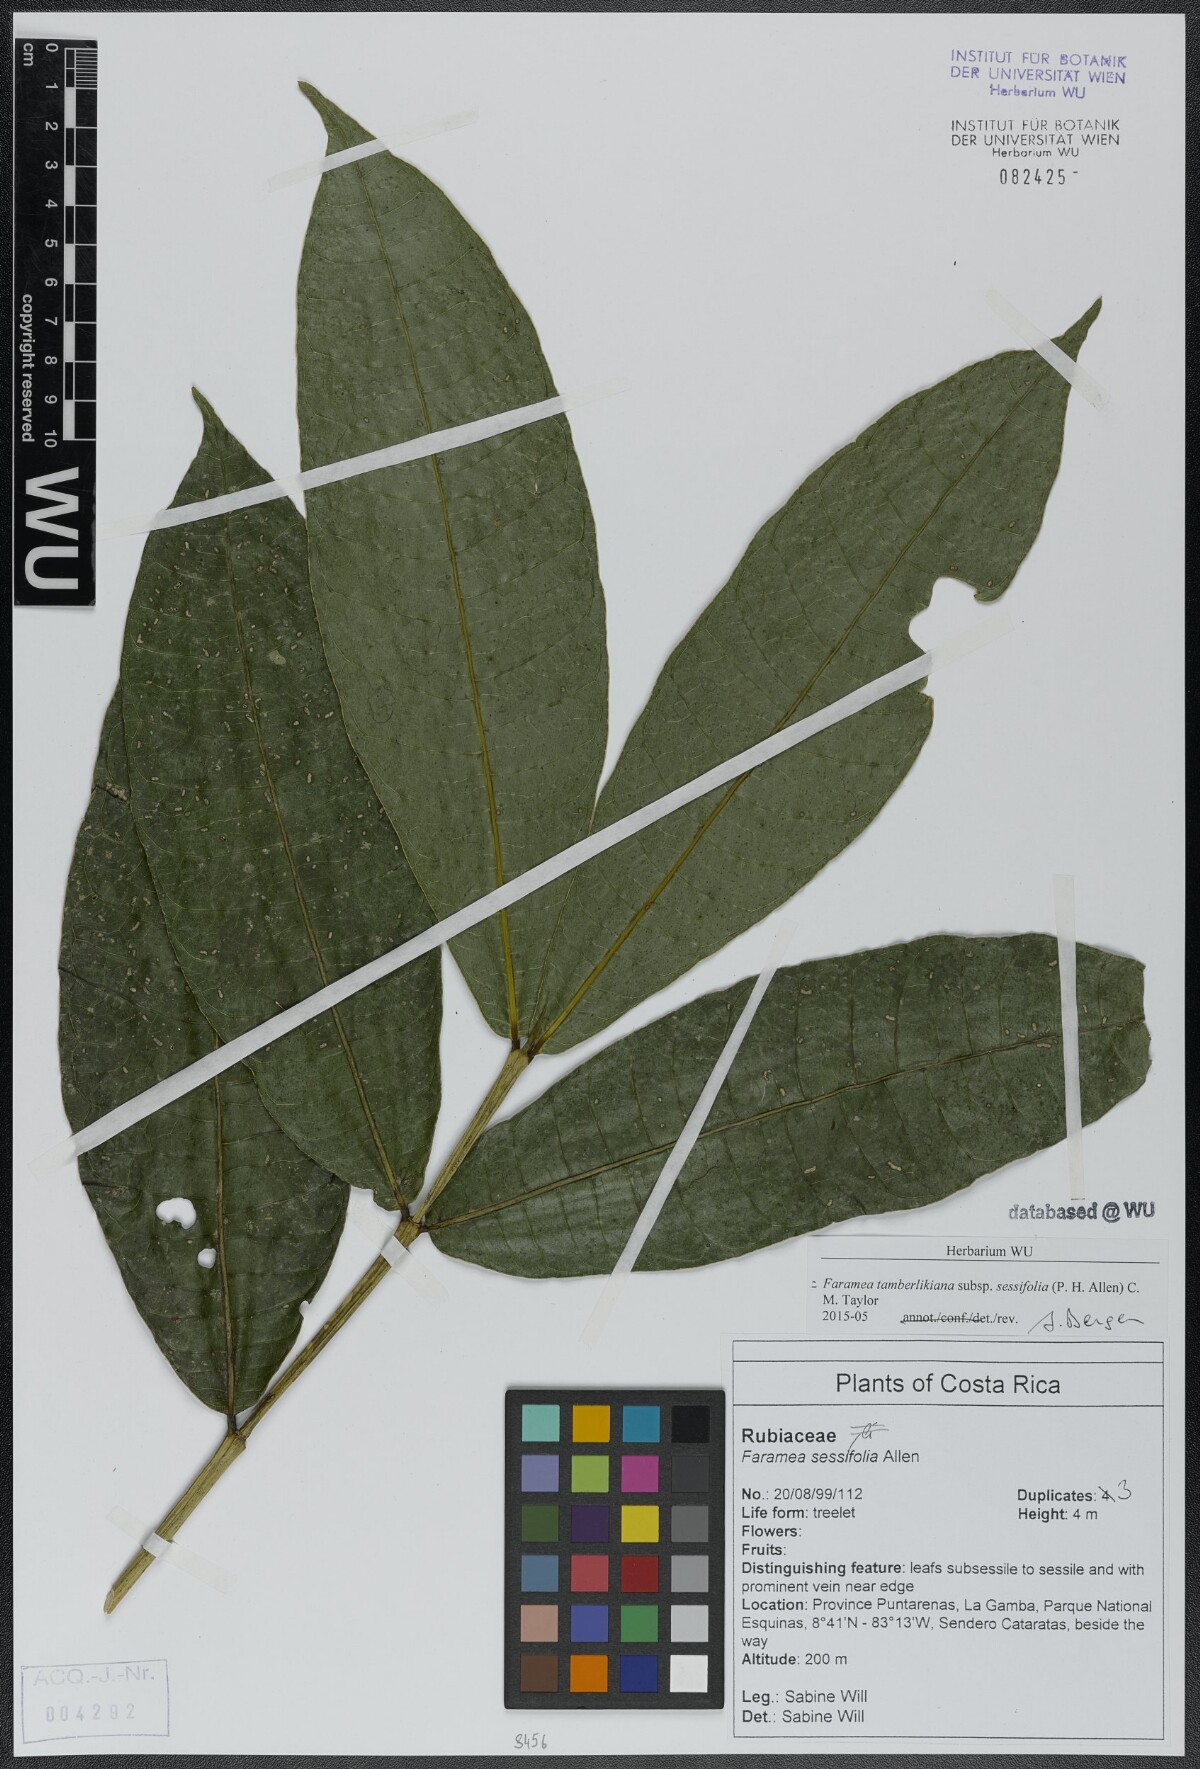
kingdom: Plantae
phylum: Tracheophyta
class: Magnoliopsida
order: Gentianales
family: Rubiaceae
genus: Faramea
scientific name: Faramea tamberlikiana
